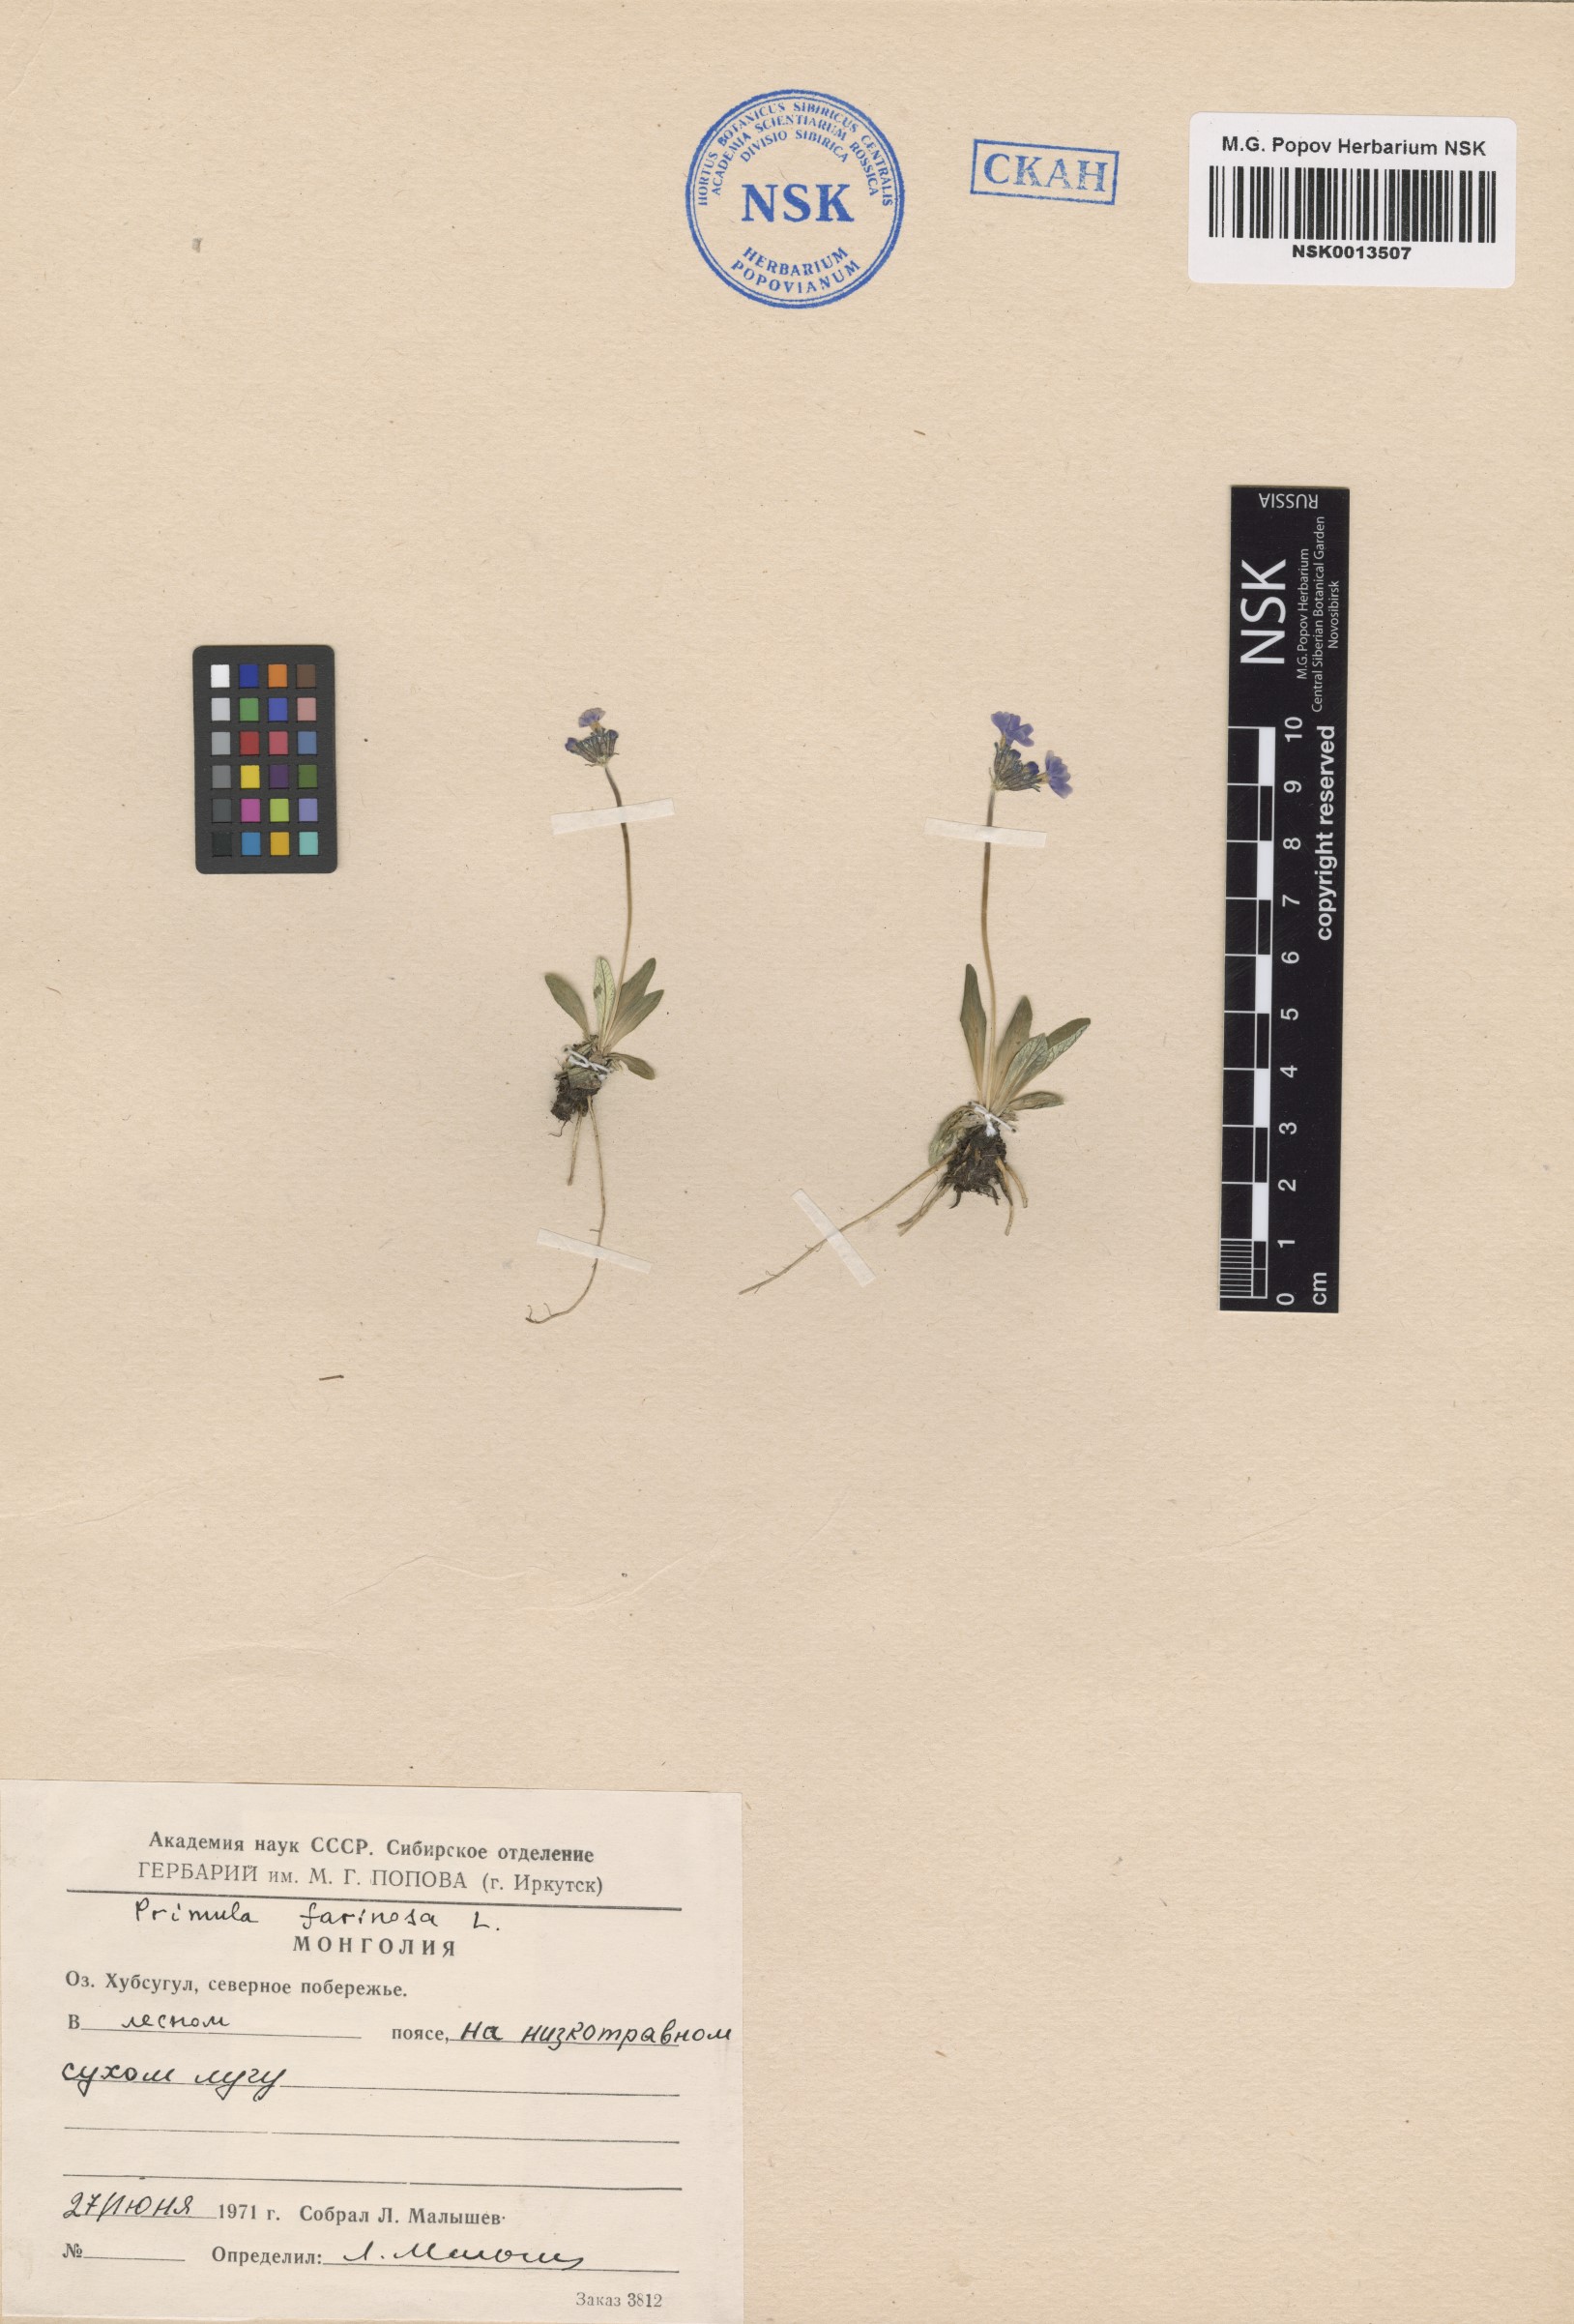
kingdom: Plantae
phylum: Tracheophyta
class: Magnoliopsida
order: Ericales
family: Primulaceae
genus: Primula
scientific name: Primula farinosa
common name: Bird's-eye primrose
